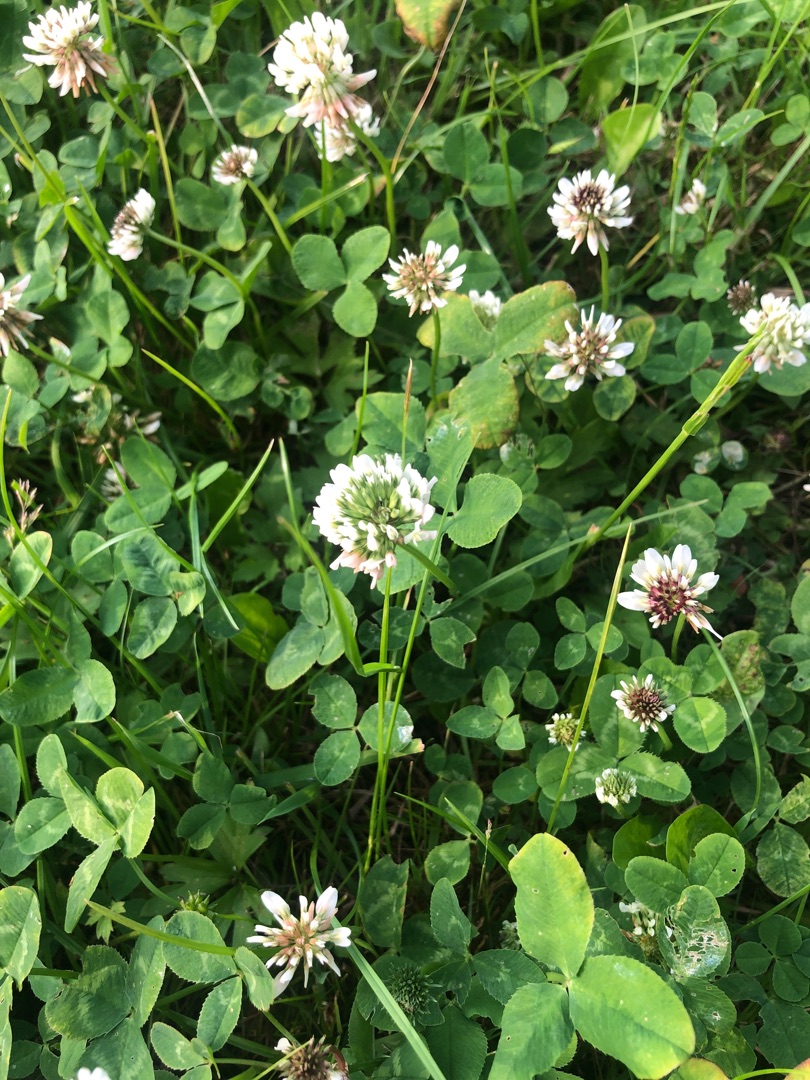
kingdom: Plantae
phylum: Tracheophyta
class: Magnoliopsida
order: Fabales
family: Fabaceae
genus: Trifolium
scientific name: Trifolium repens
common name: Hvid-kløver
